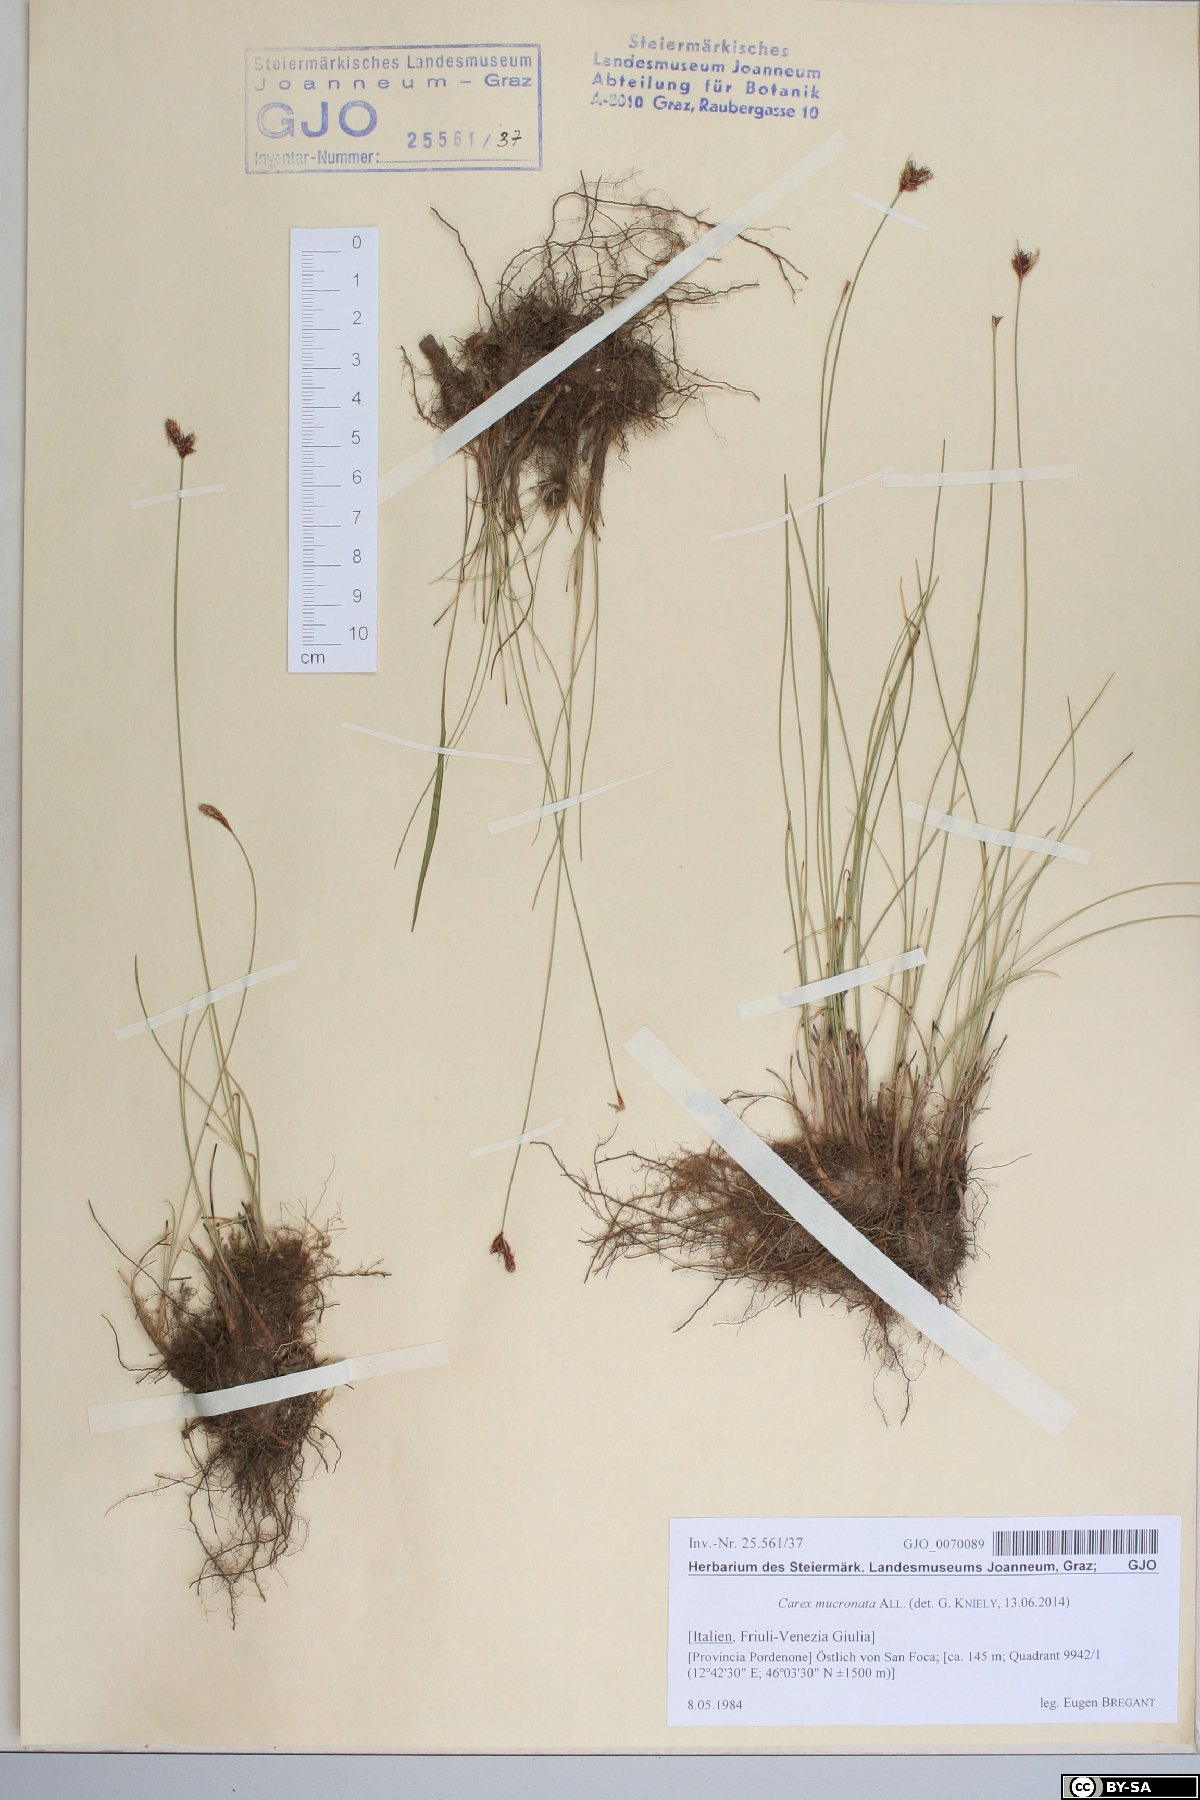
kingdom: Plantae
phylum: Tracheophyta
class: Liliopsida
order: Poales
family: Cyperaceae
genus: Carex
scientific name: Carex mucronata
